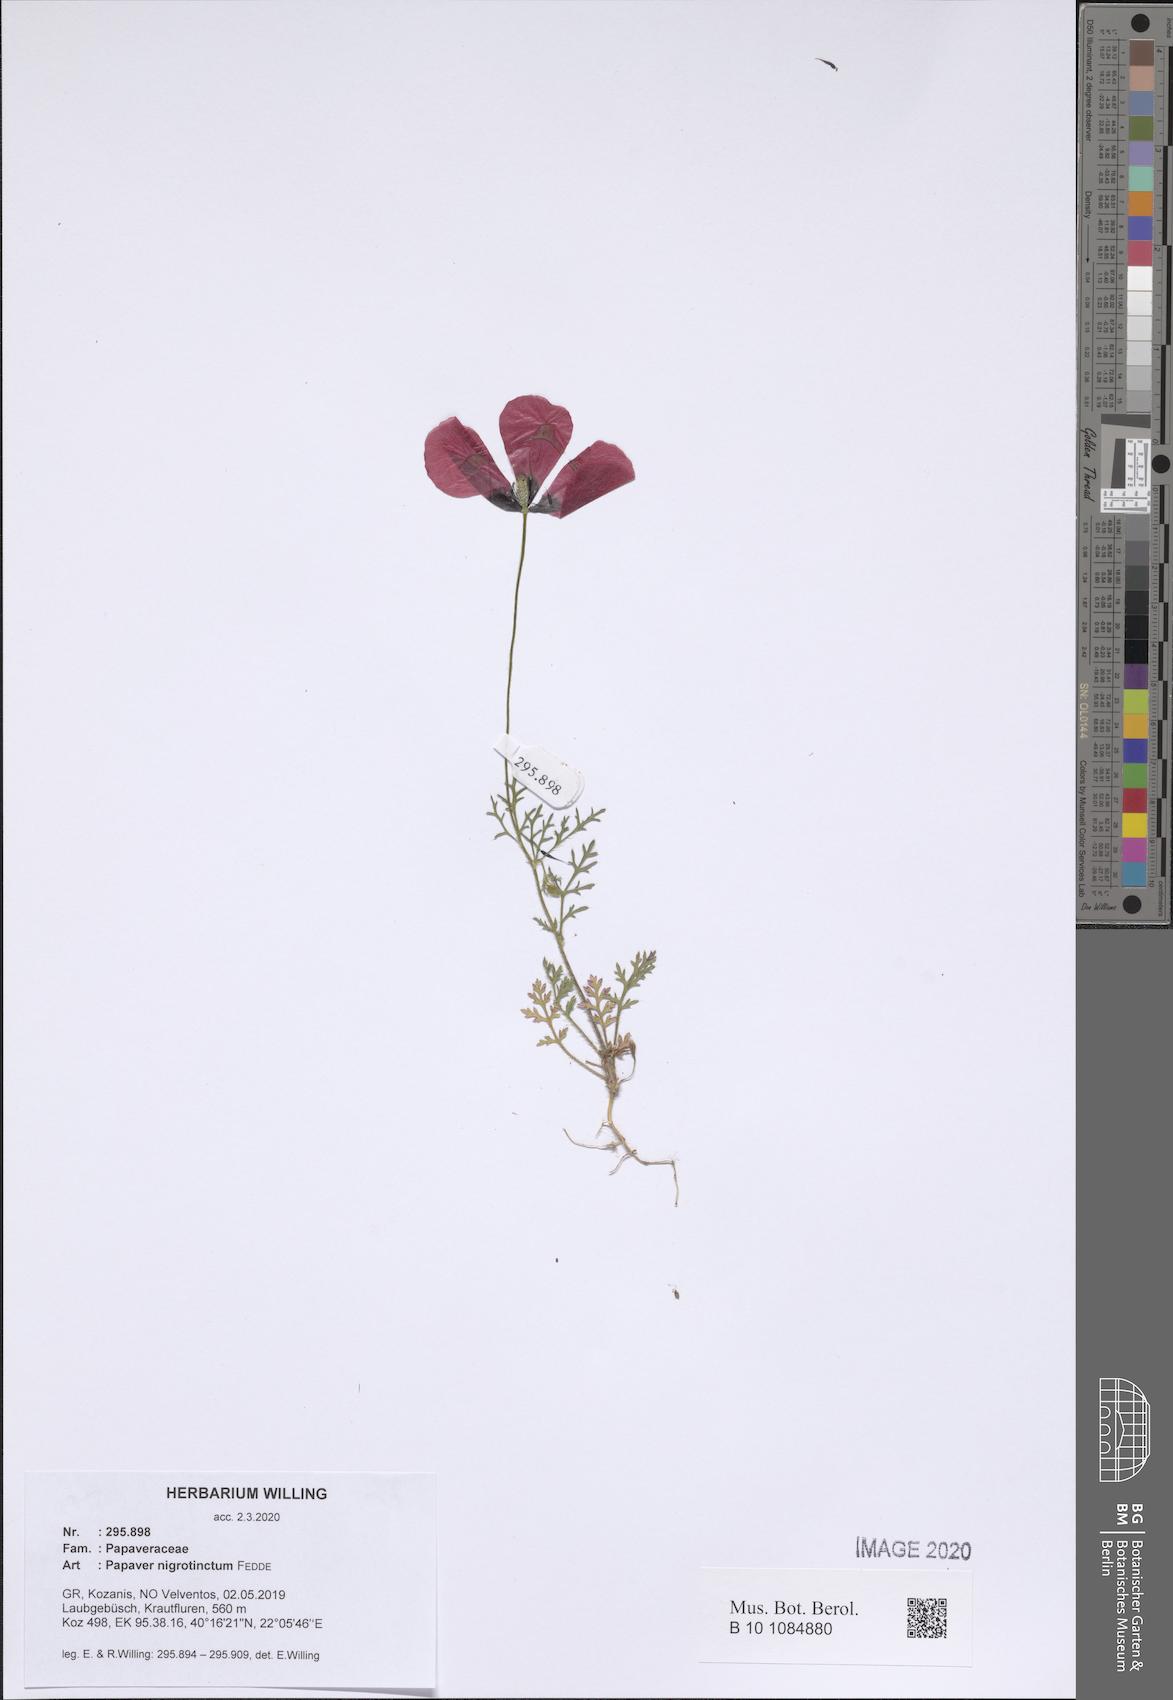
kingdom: Plantae
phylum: Tracheophyta
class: Magnoliopsida
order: Ranunculales
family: Papaveraceae
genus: Roemeria
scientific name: Roemeria nigrotincta
